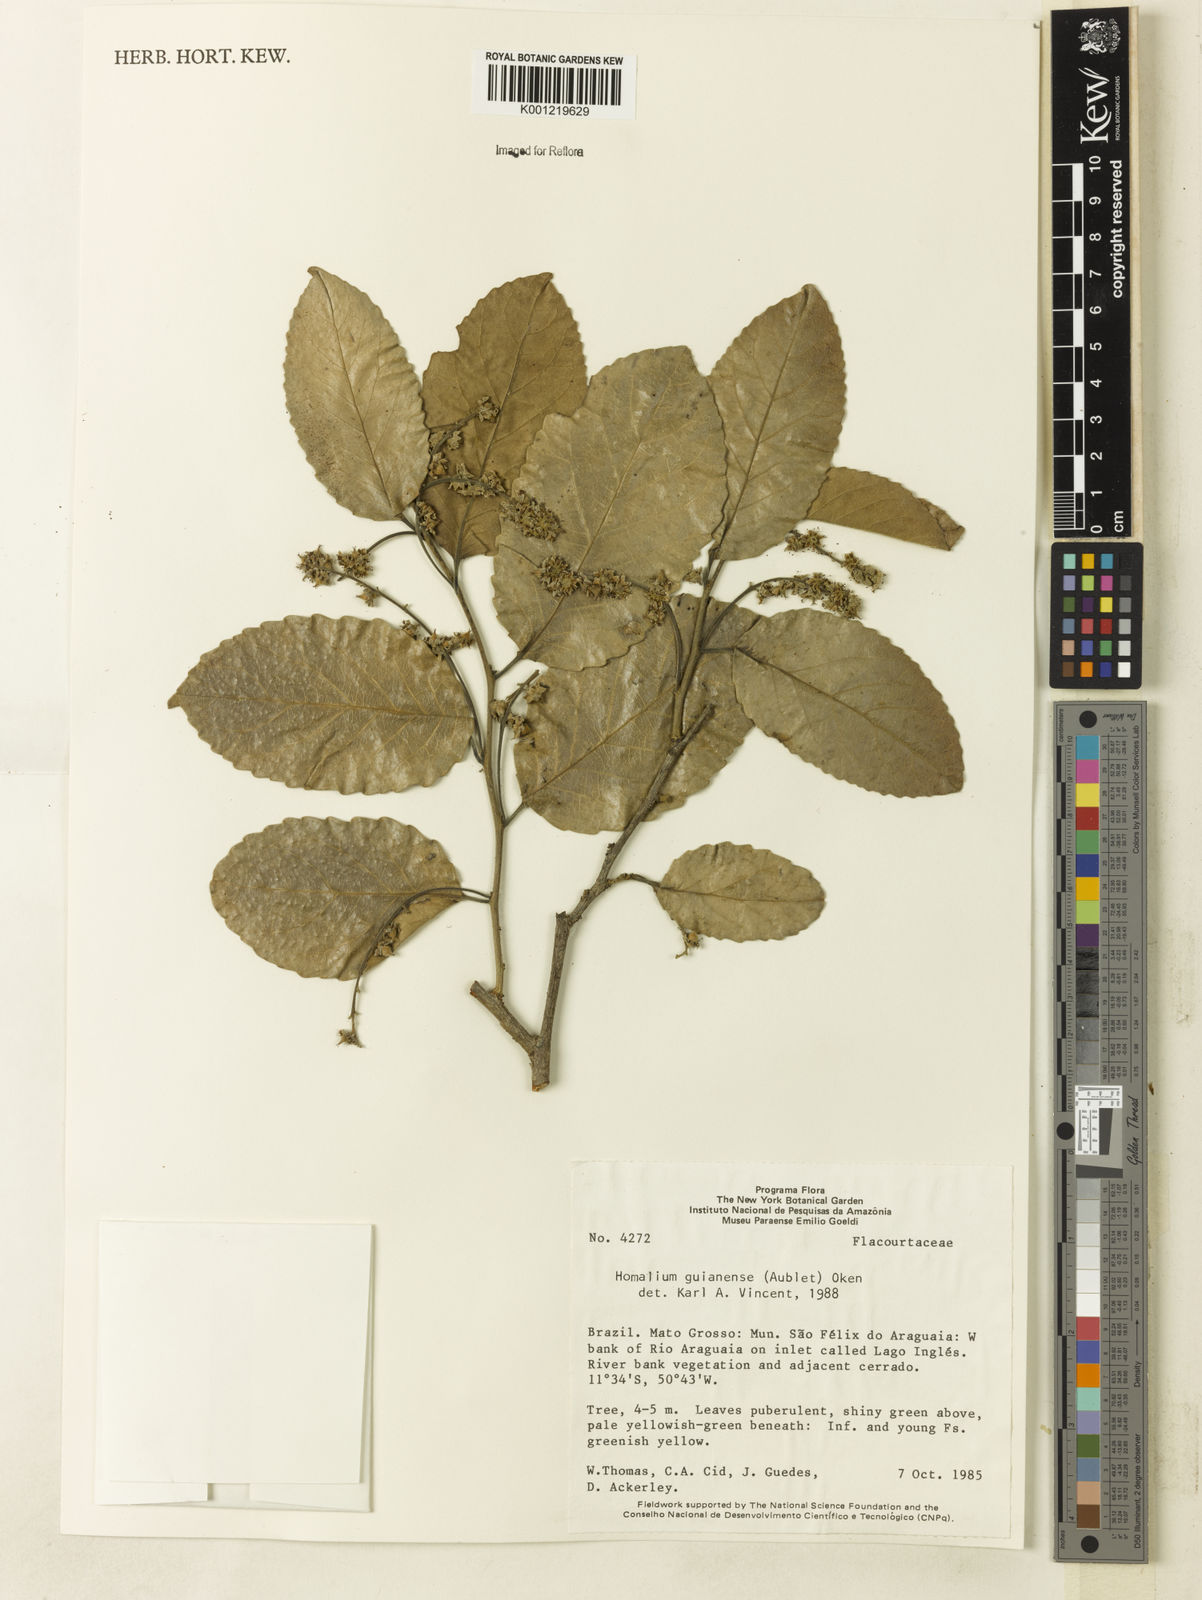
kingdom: Plantae
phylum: Tracheophyta
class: Magnoliopsida
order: Malpighiales
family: Salicaceae
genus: Homalium
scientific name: Homalium guianense
